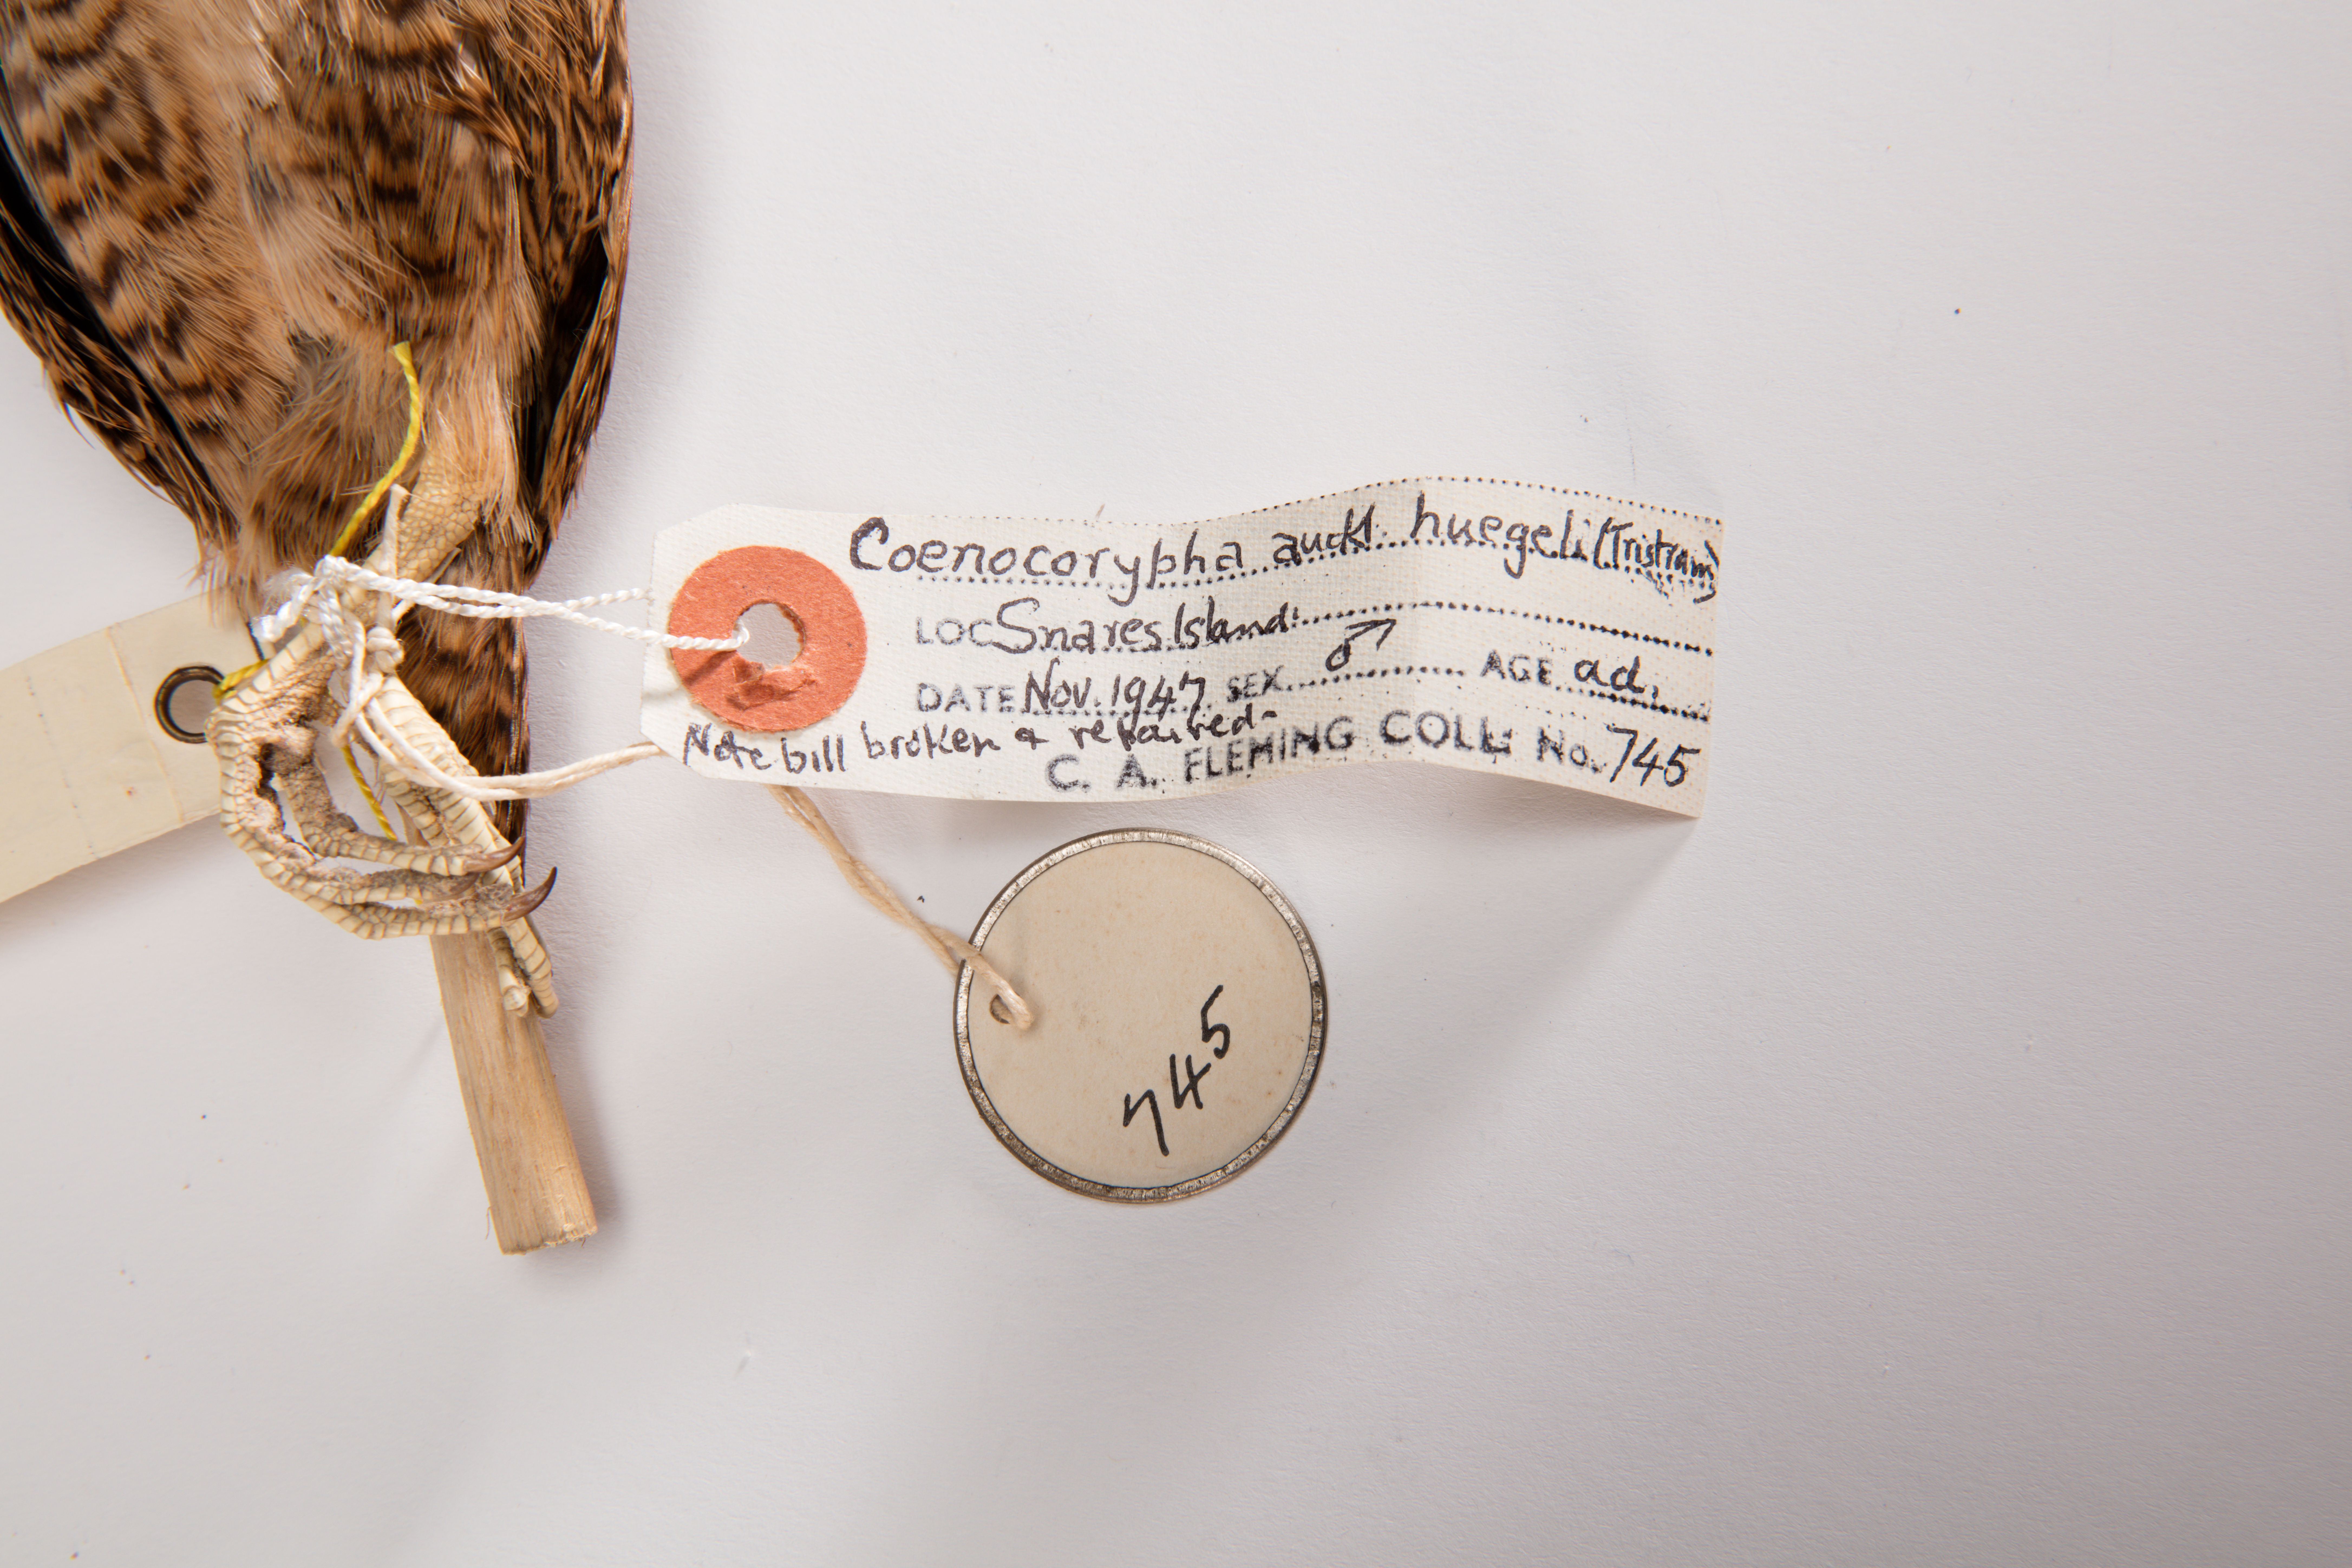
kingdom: Animalia
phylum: Chordata
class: Aves
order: Charadriiformes
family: Scolopacidae
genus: Coenocorypha
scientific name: Coenocorypha huegeli
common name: Snares snipe
